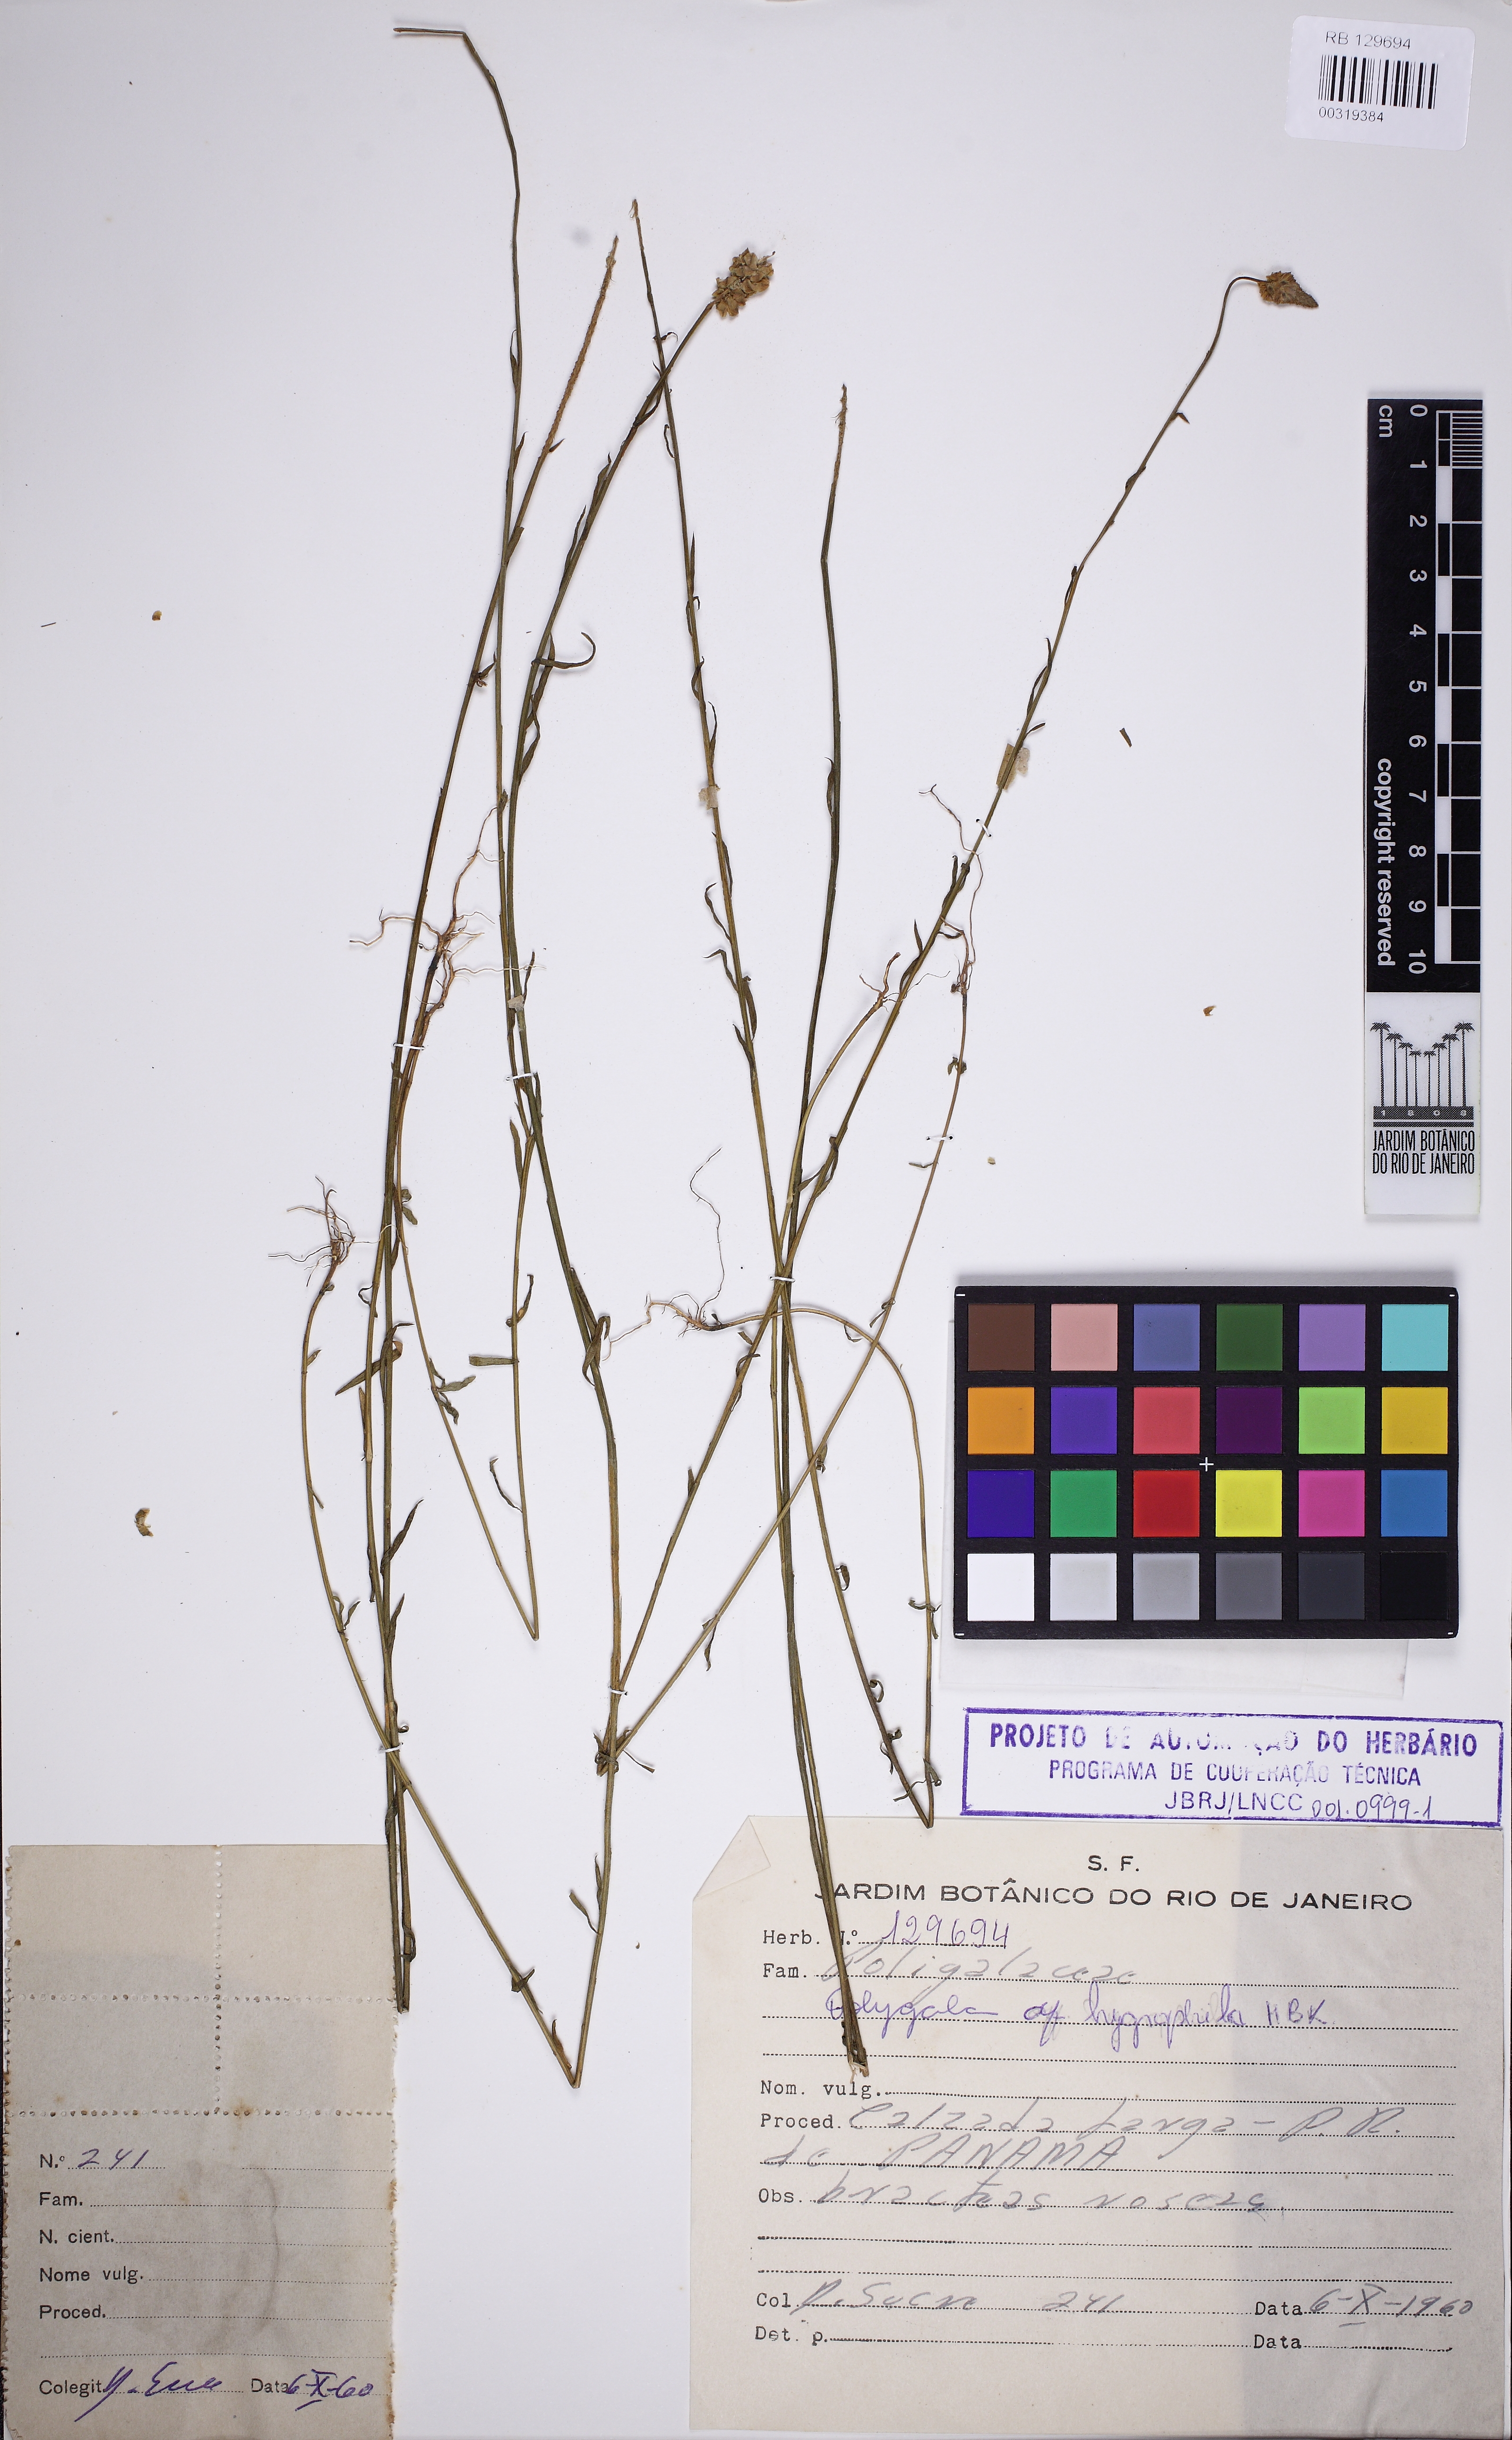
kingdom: Plantae
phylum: Tracheophyta
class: Magnoliopsida
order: Fabales
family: Polygalaceae
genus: Polygala
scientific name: Polygala hygrophila
